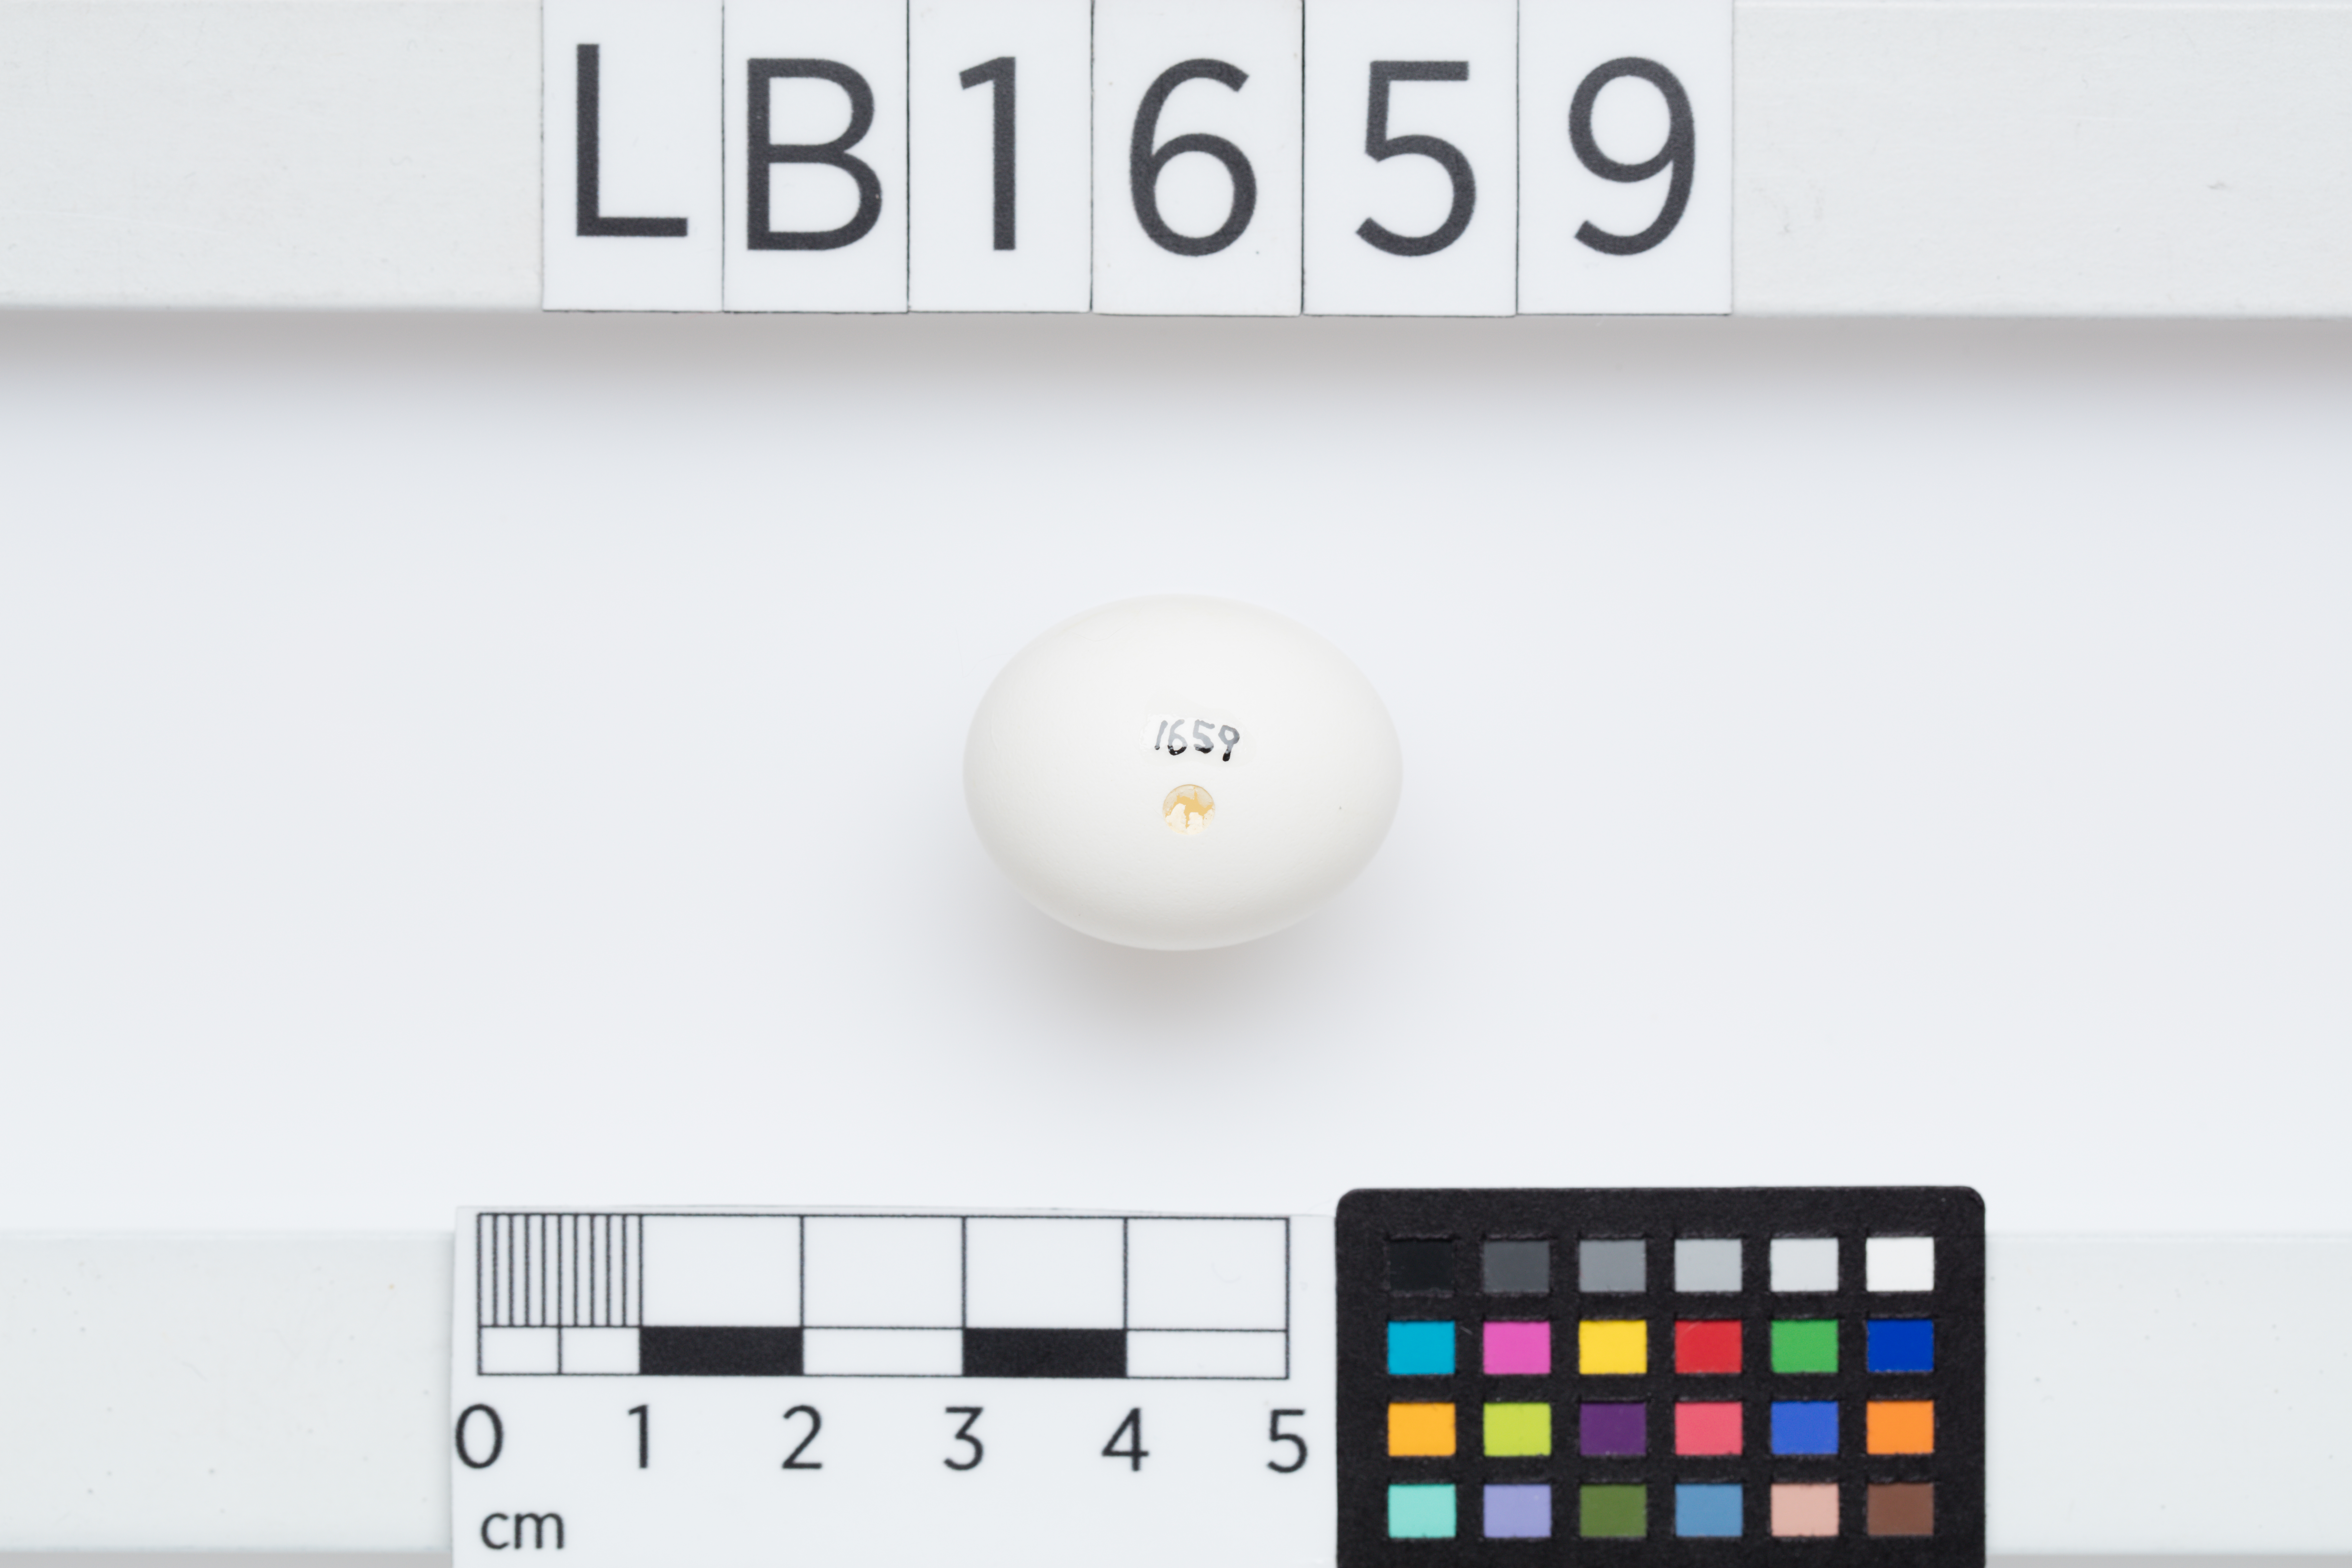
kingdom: Animalia
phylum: Chordata
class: Aves
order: Psittaciformes
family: Psittacidae
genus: Platycercus
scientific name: Platycercus eximius
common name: Eastern rosella
